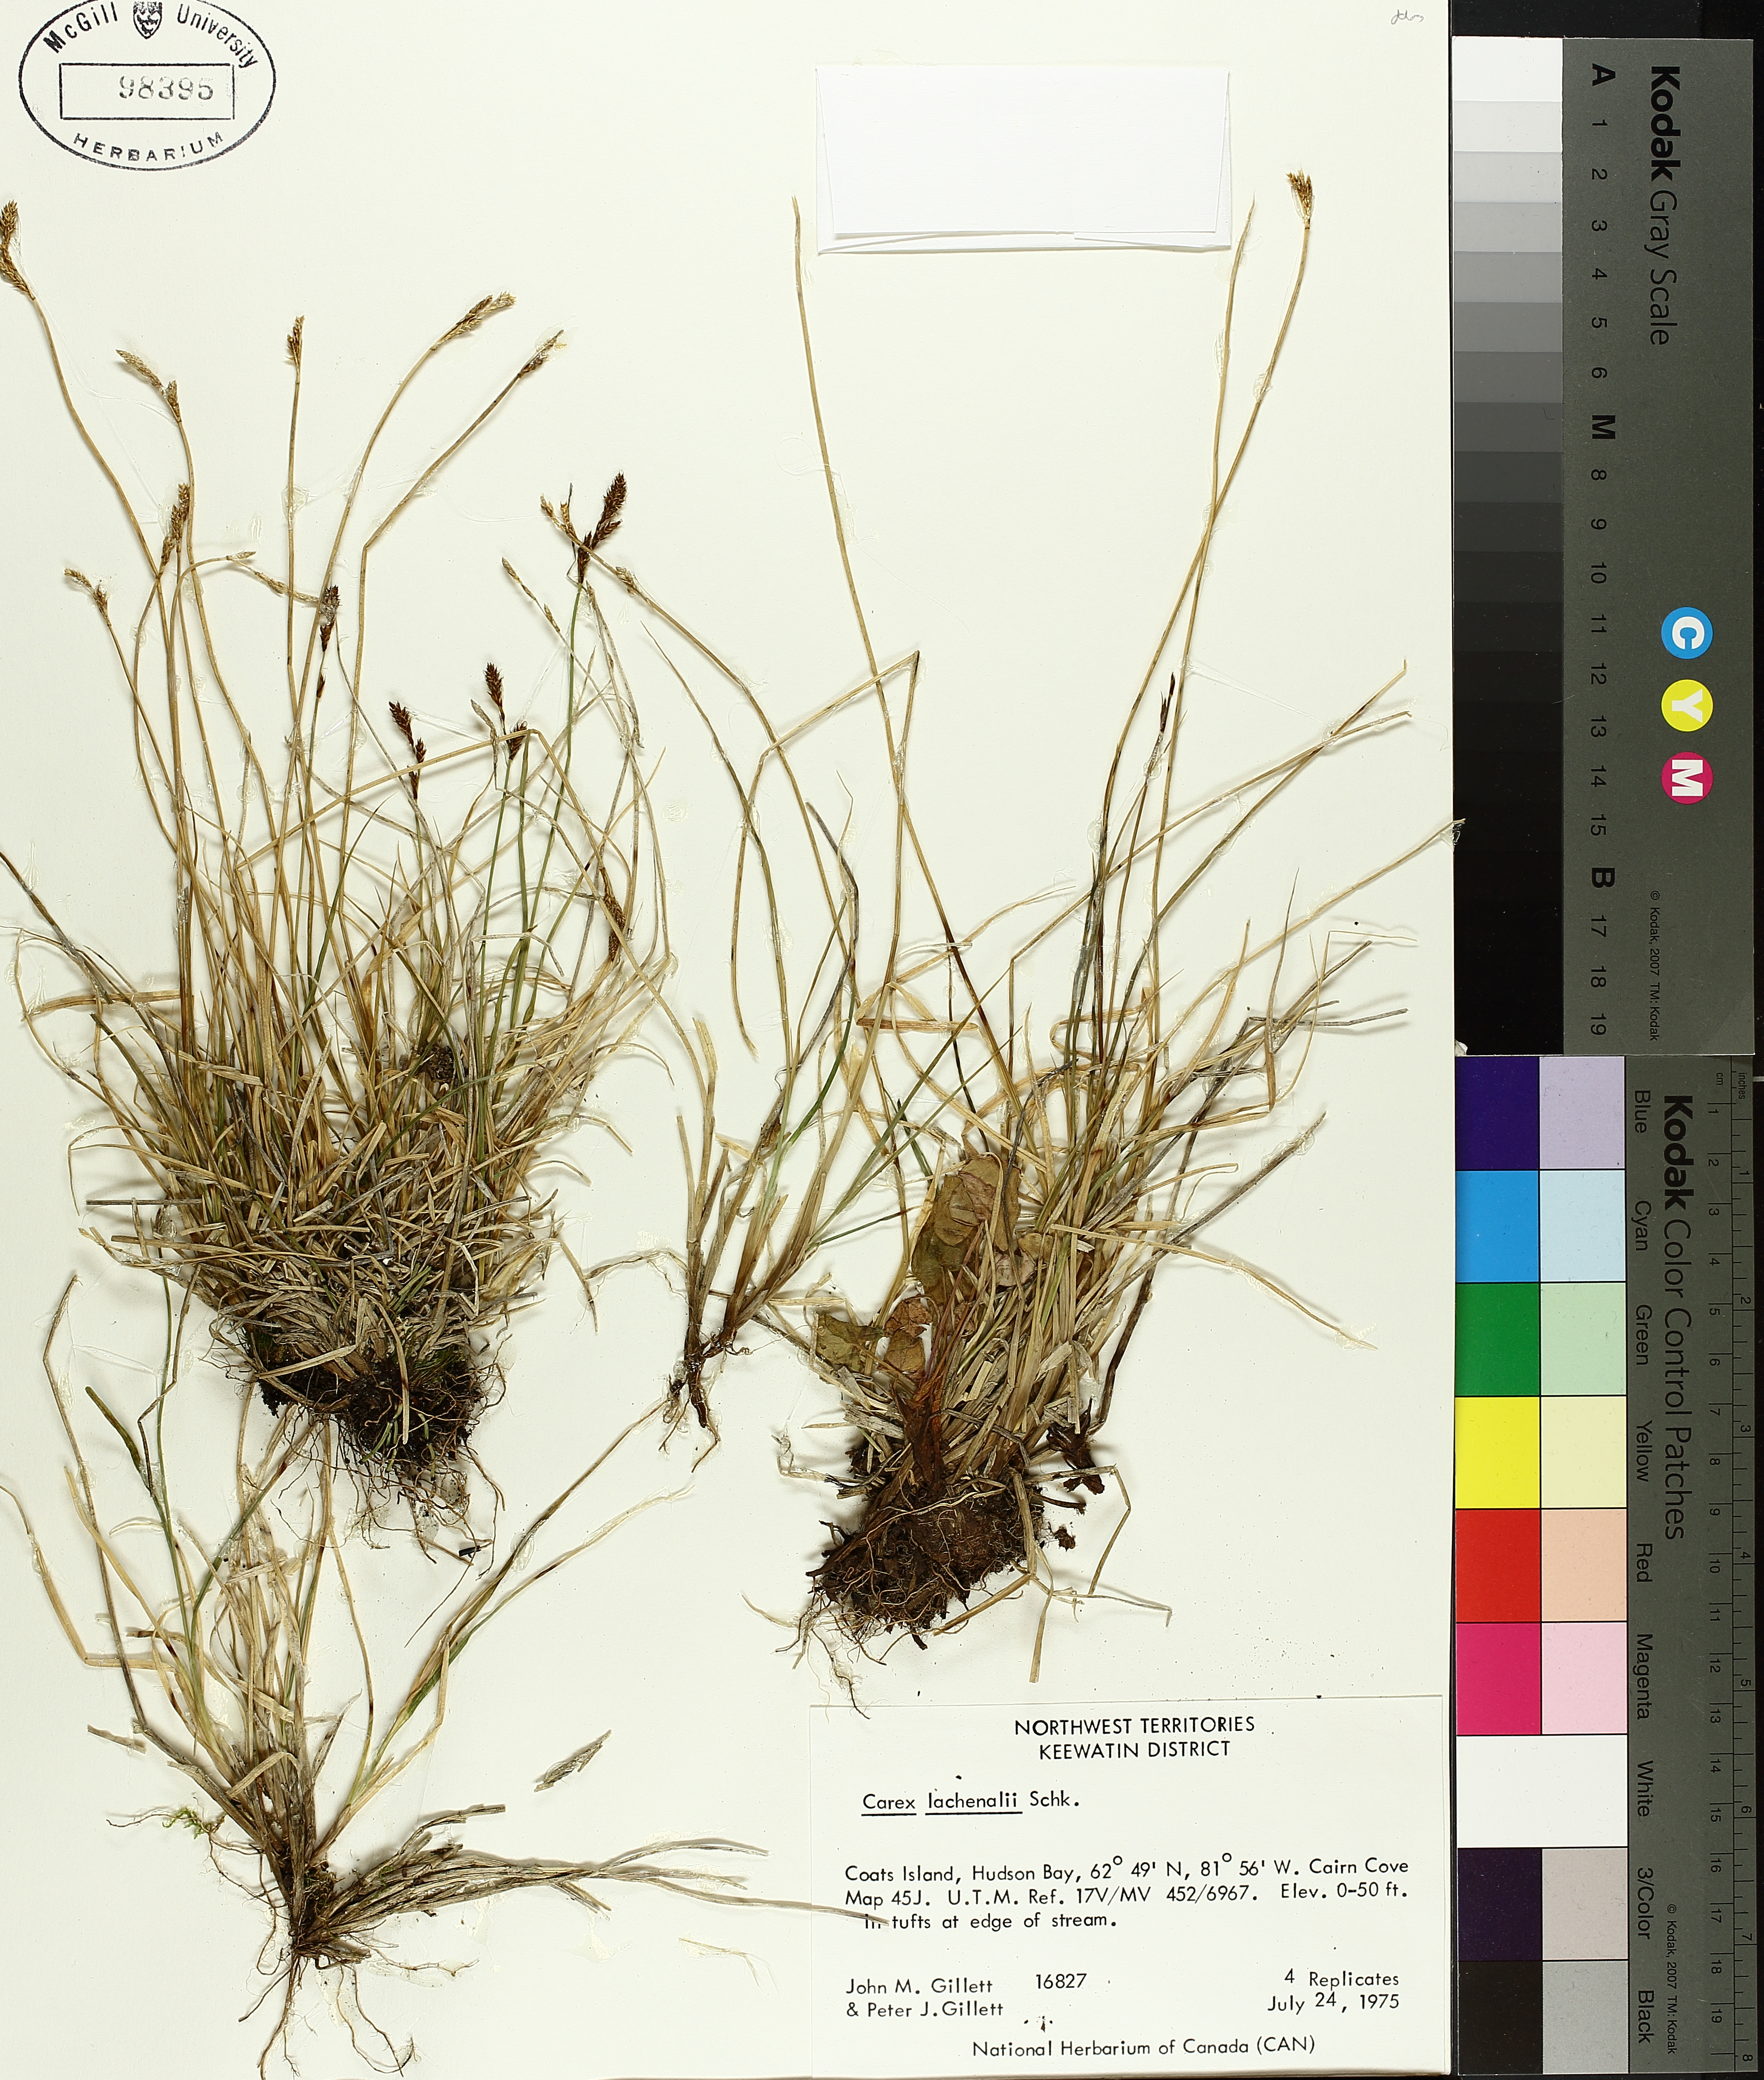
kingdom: Plantae
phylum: Tracheophyta
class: Liliopsida
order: Poales
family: Cyperaceae
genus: Carex
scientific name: Carex lachenalii
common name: Hare's-foot sedge
